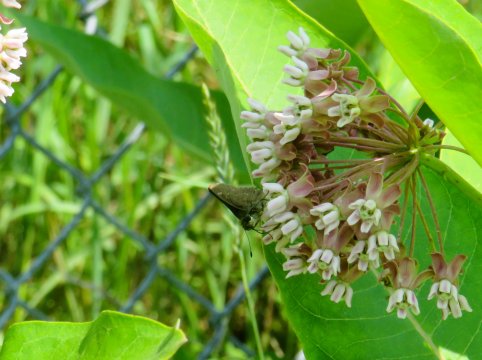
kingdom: Animalia
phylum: Arthropoda
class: Insecta
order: Lepidoptera
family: Hesperiidae
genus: Euphyes
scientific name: Euphyes vestris
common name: Dun Skipper
